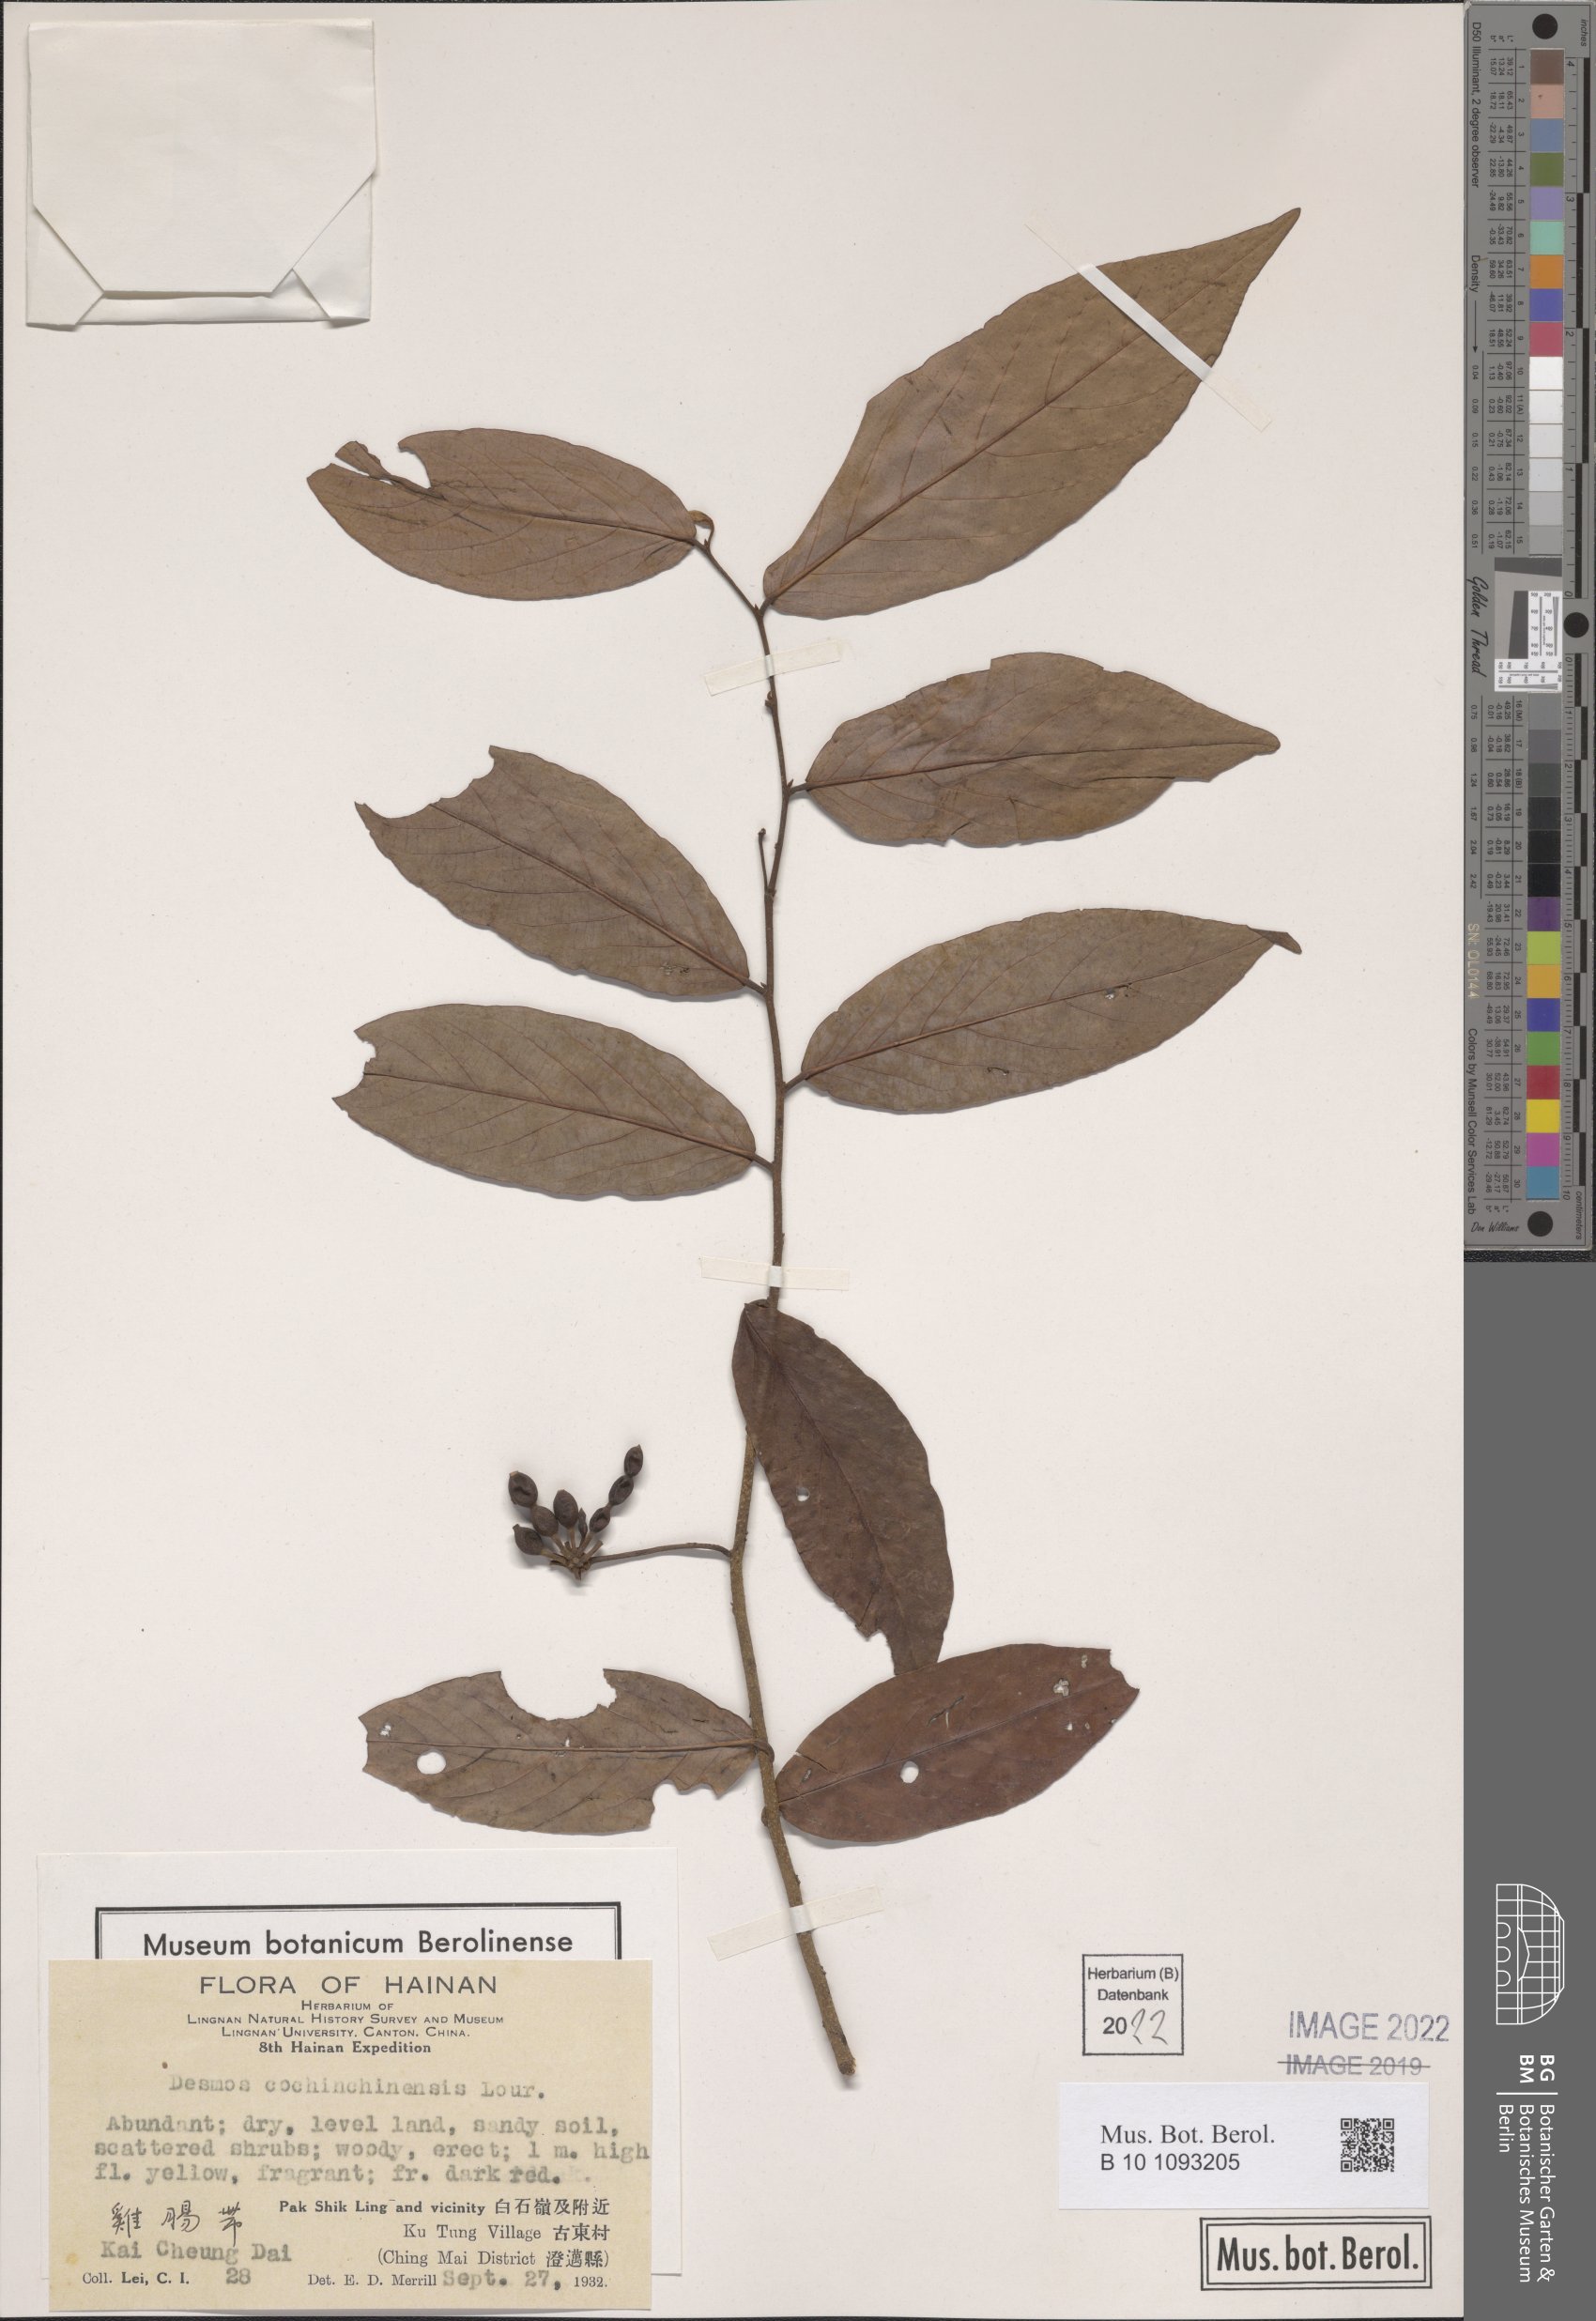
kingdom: Plantae
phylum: Tracheophyta
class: Magnoliopsida
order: Magnoliales
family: Annonaceae
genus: Desmos
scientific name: Desmos cochinchinensis
